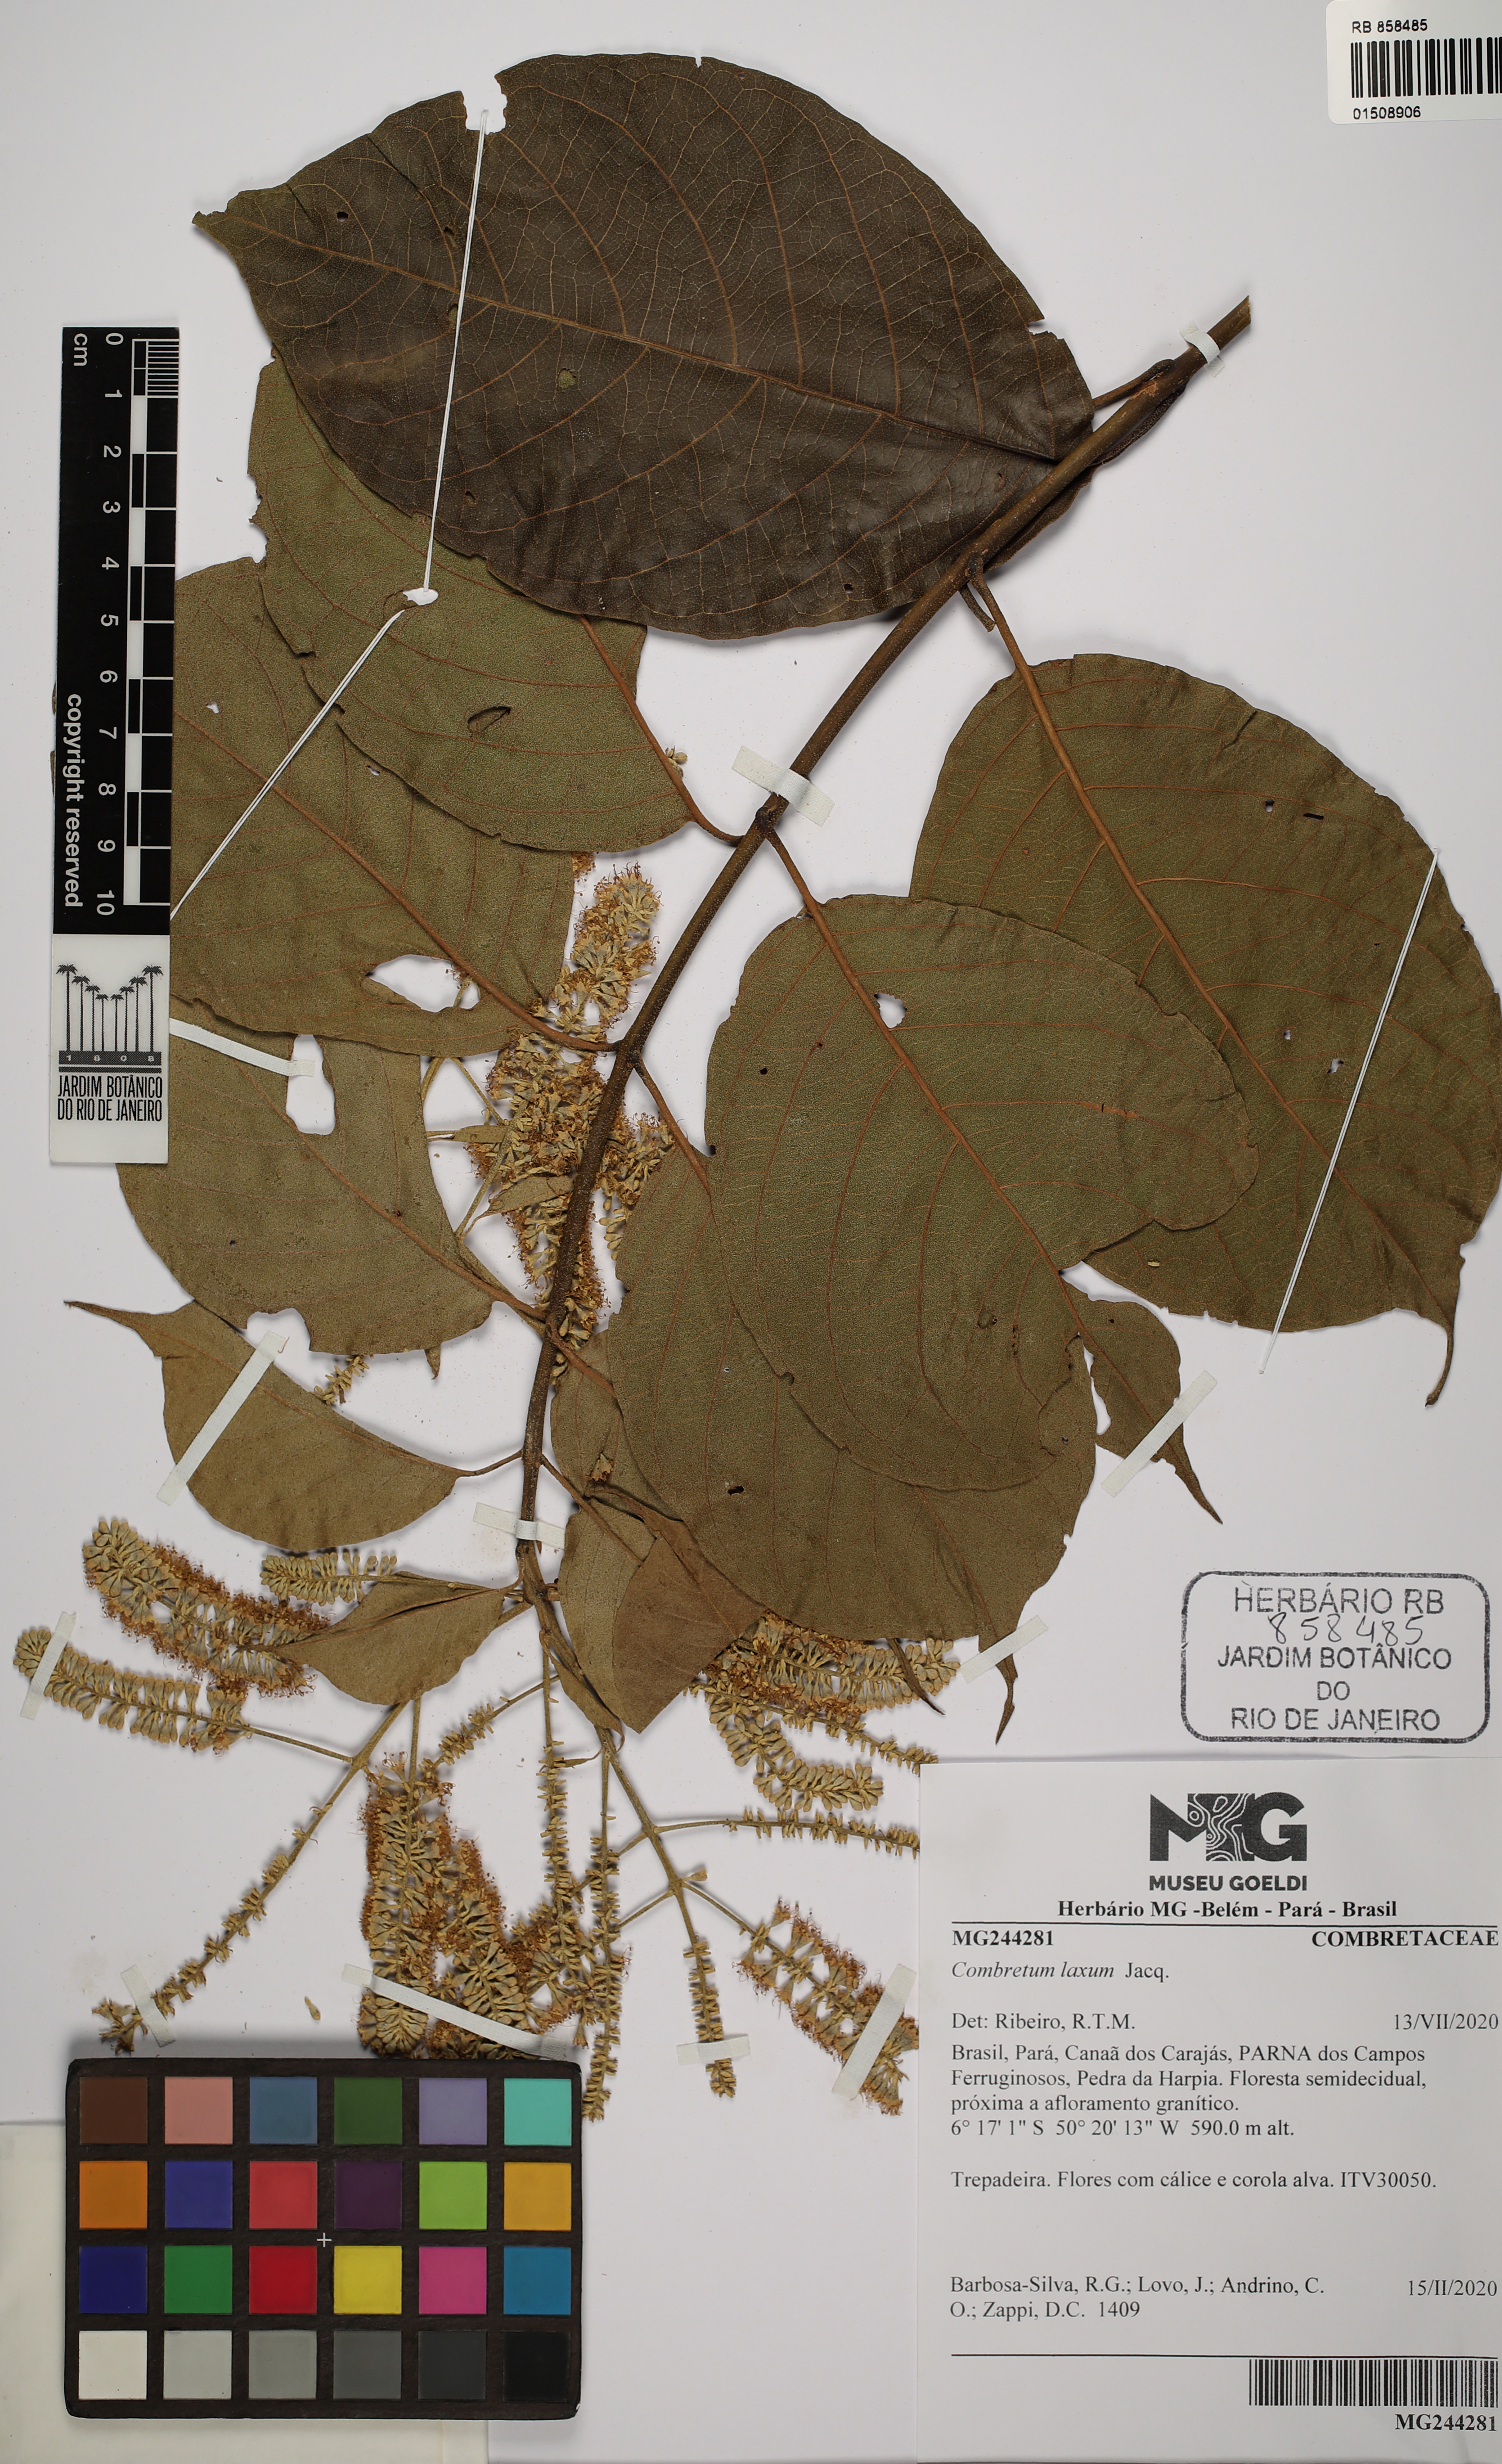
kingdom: Plantae
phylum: Tracheophyta
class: Magnoliopsida
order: Myrtales
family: Combretaceae
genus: Combretum
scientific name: Combretum laxum
